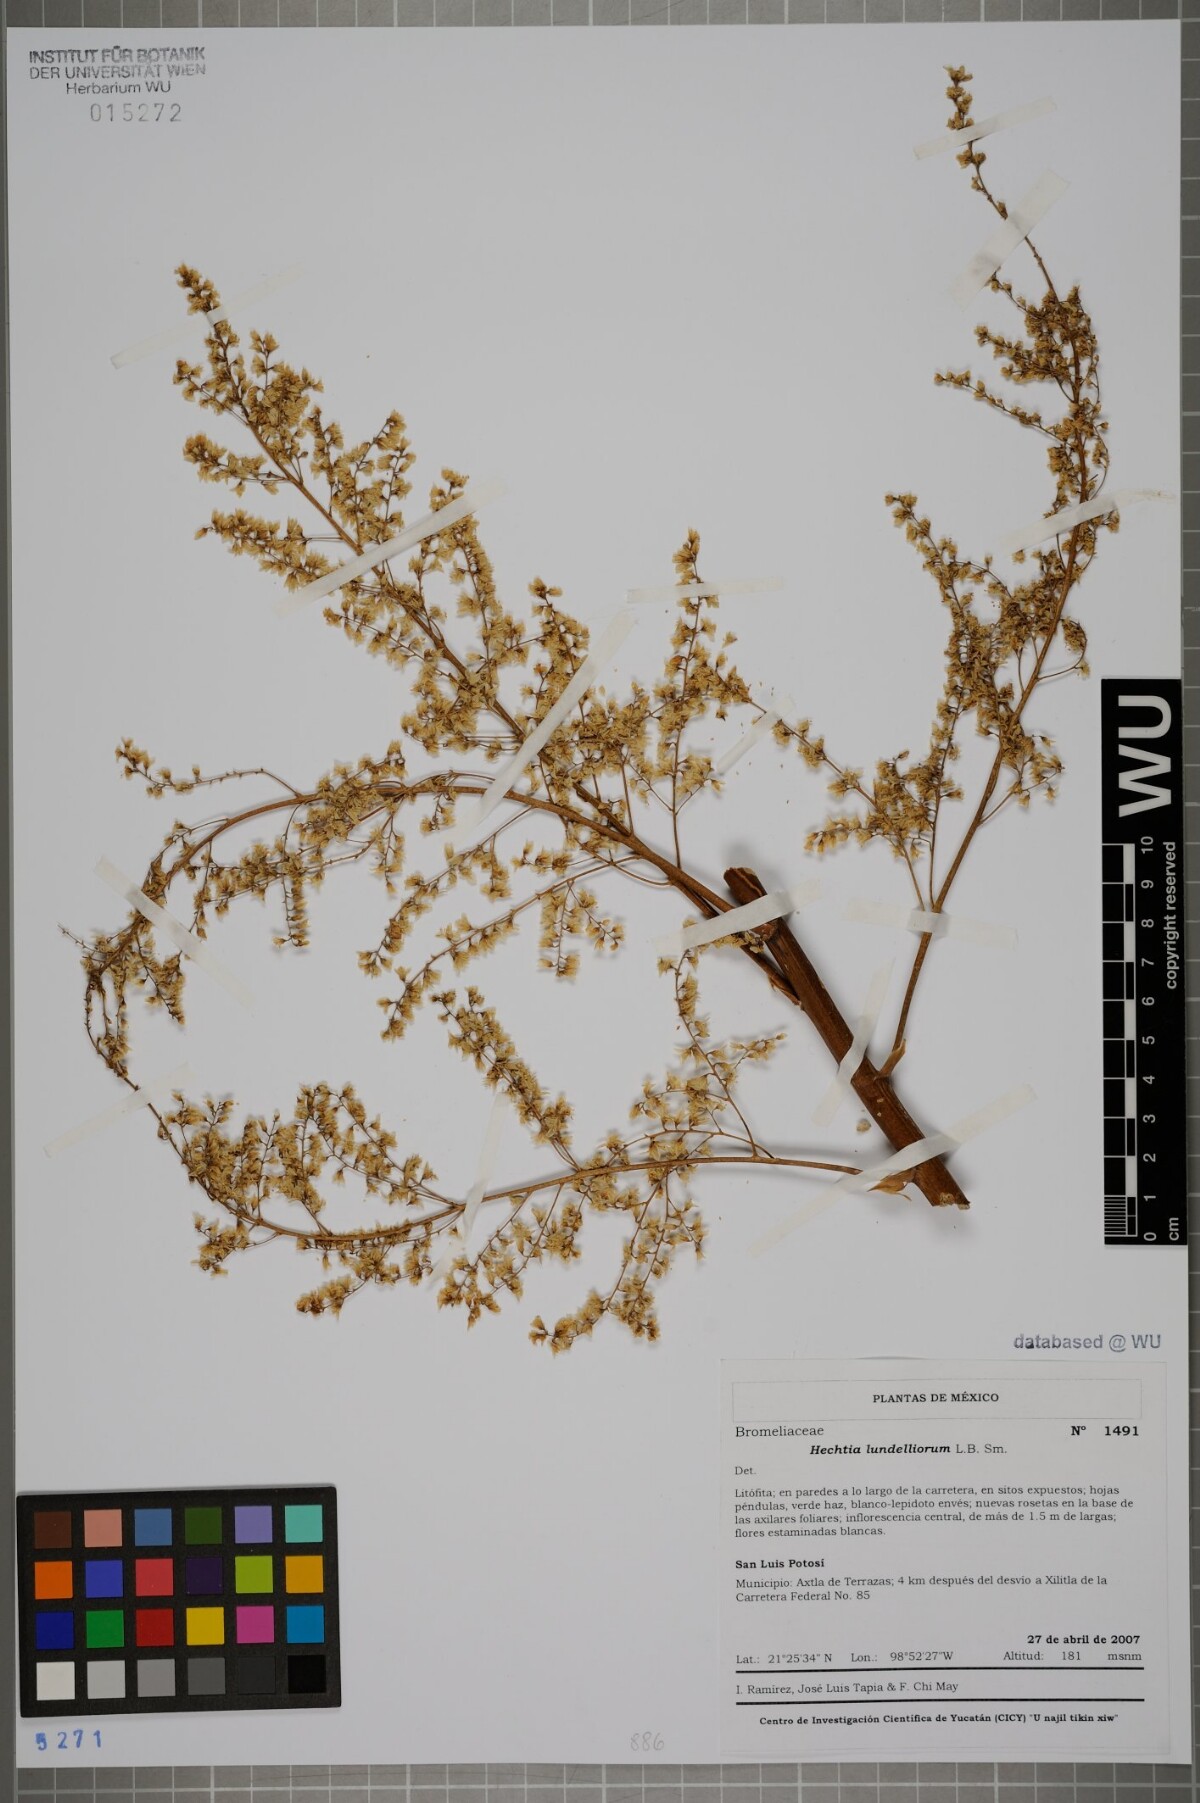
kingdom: Plantae
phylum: Tracheophyta
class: Liliopsida
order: Poales
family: Bromeliaceae
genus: Hechtia
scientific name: Hechtia lundelliorum
